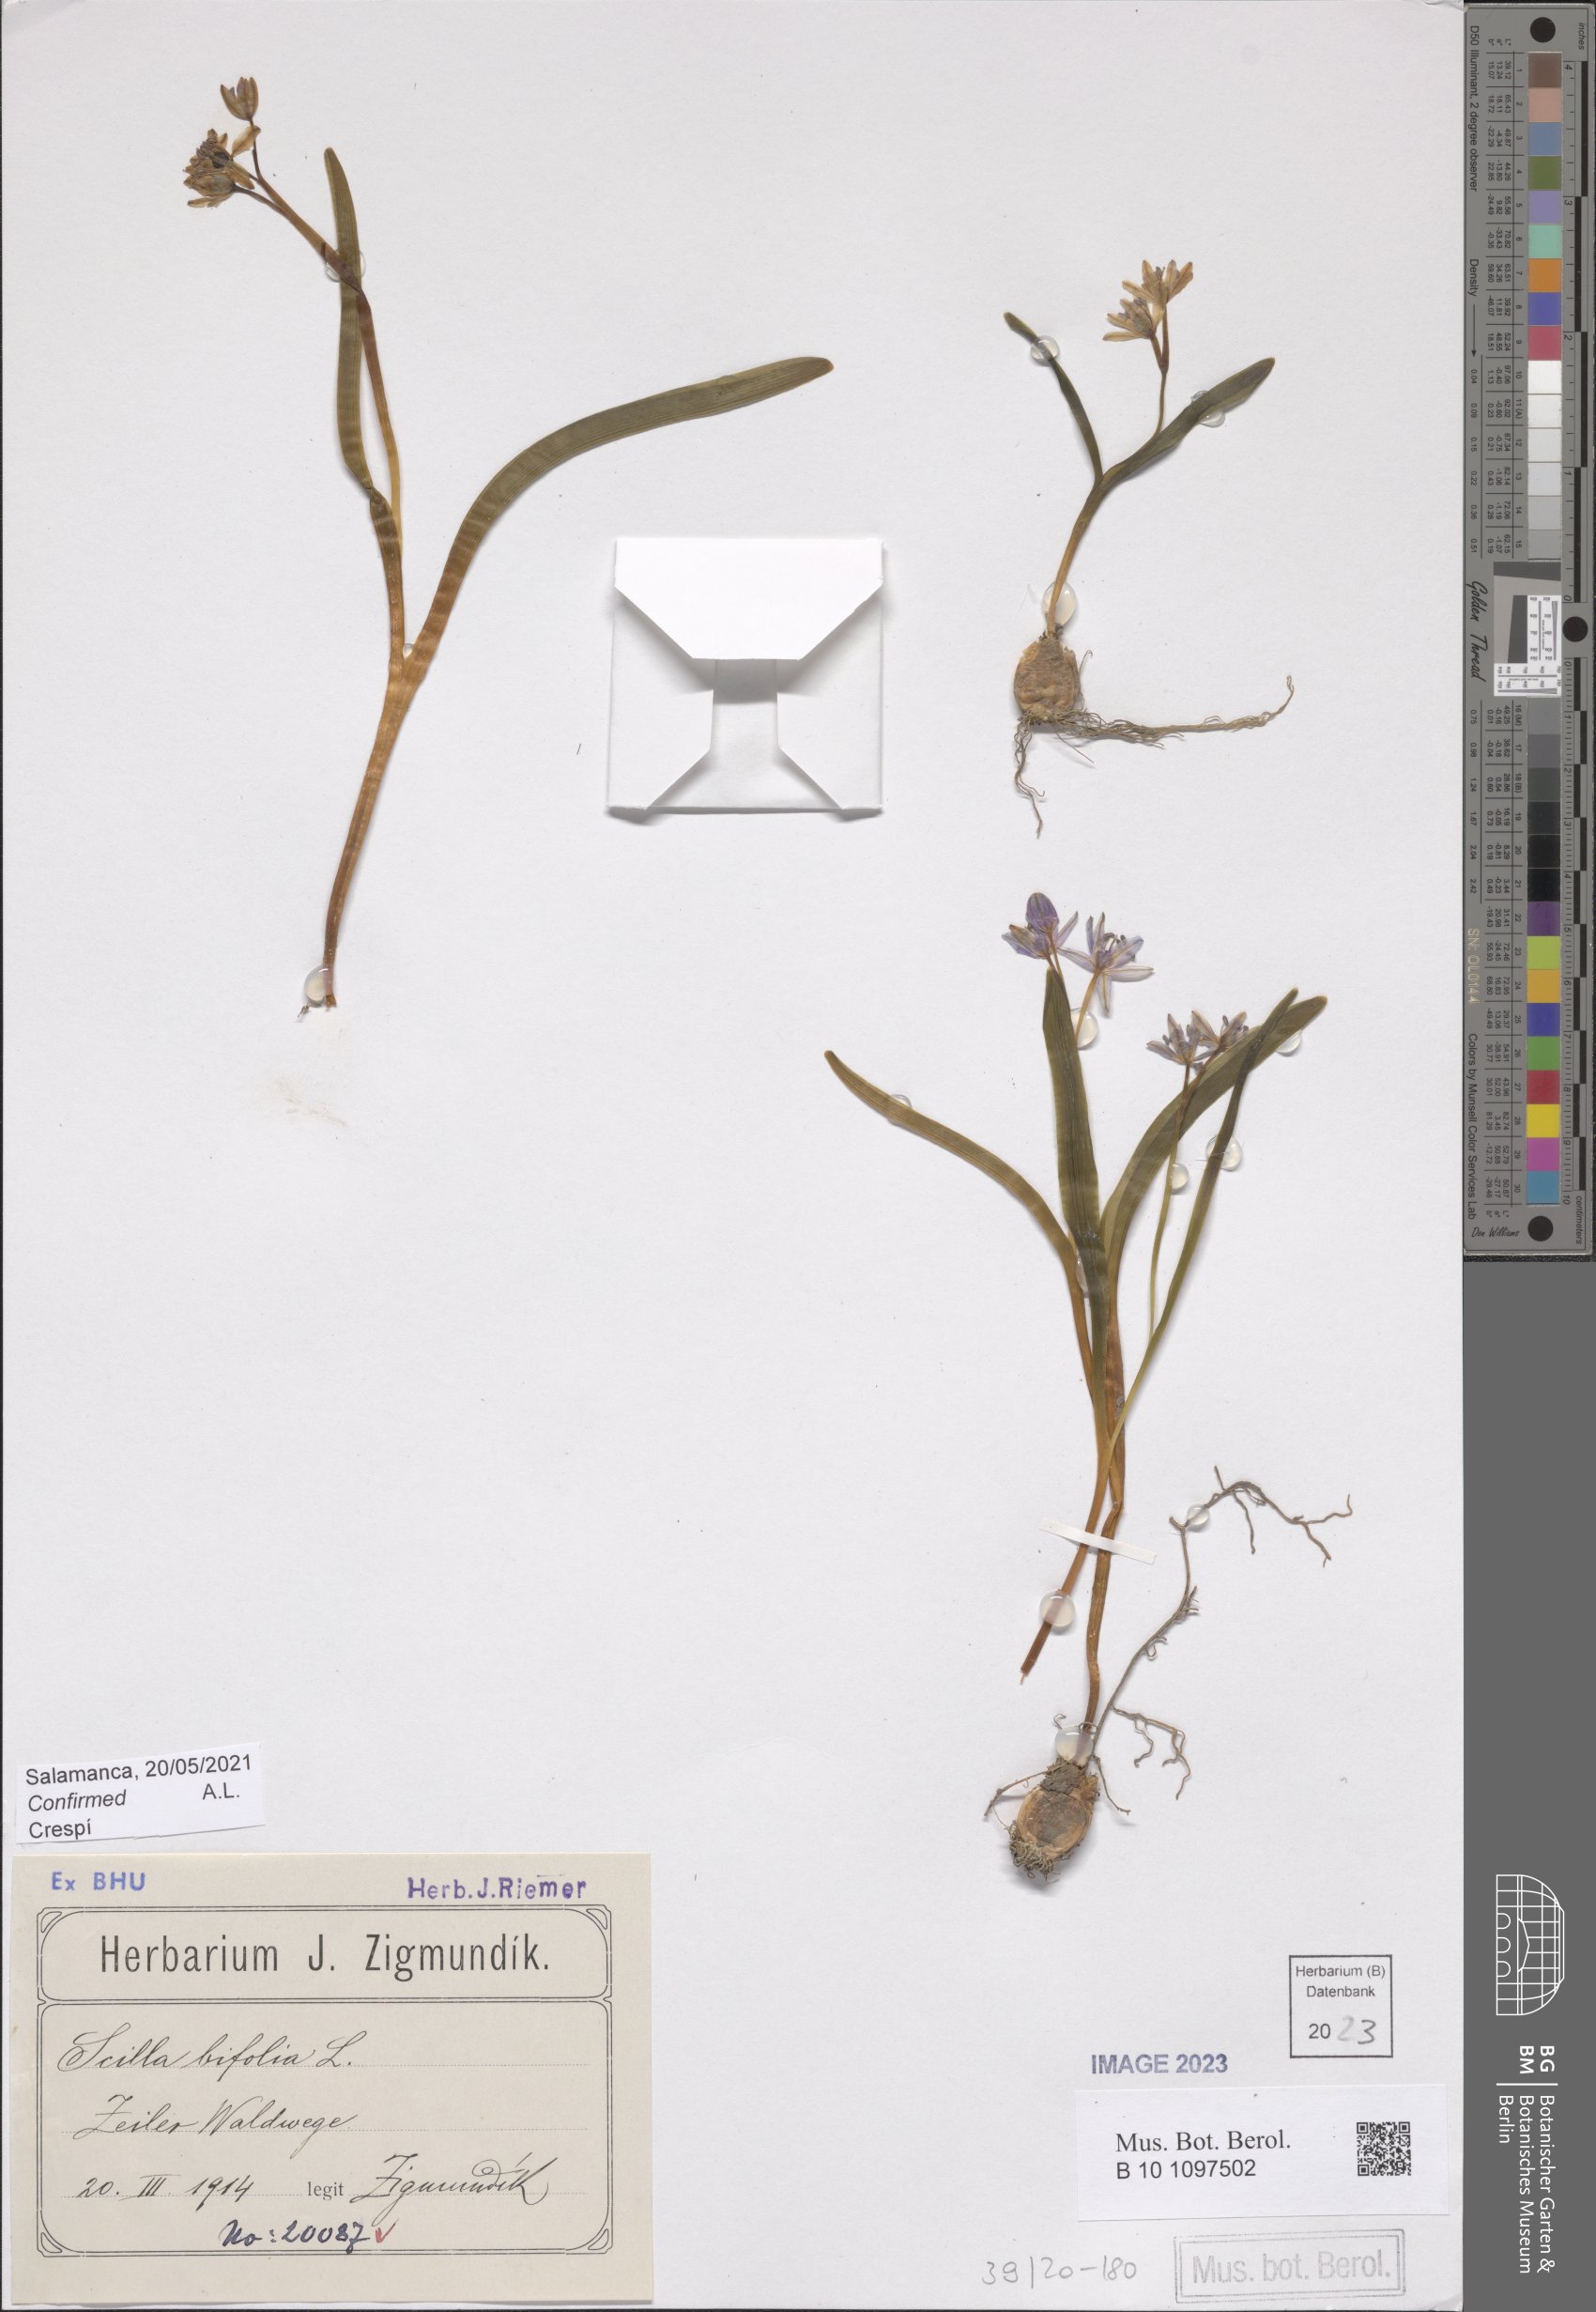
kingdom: Plantae
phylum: Tracheophyta
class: Liliopsida
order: Asparagales
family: Asparagaceae
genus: Scilla
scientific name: Scilla bifolia
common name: Alpine squill
